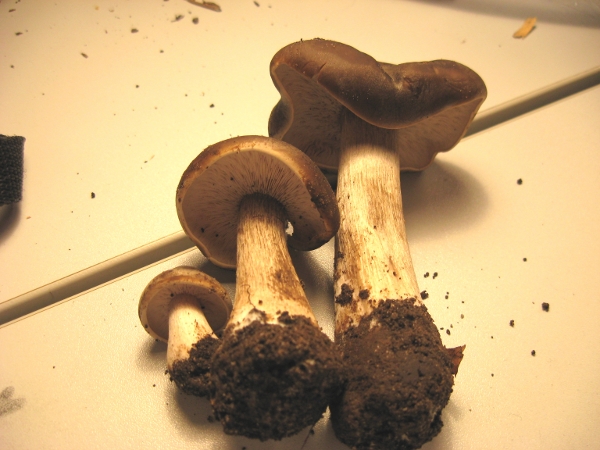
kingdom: Fungi
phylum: Basidiomycota
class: Agaricomycetes
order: Agaricales
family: Tricholomataceae
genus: Melanoleuca
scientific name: Melanoleuca melaleuca
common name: sorthvid munkehat
